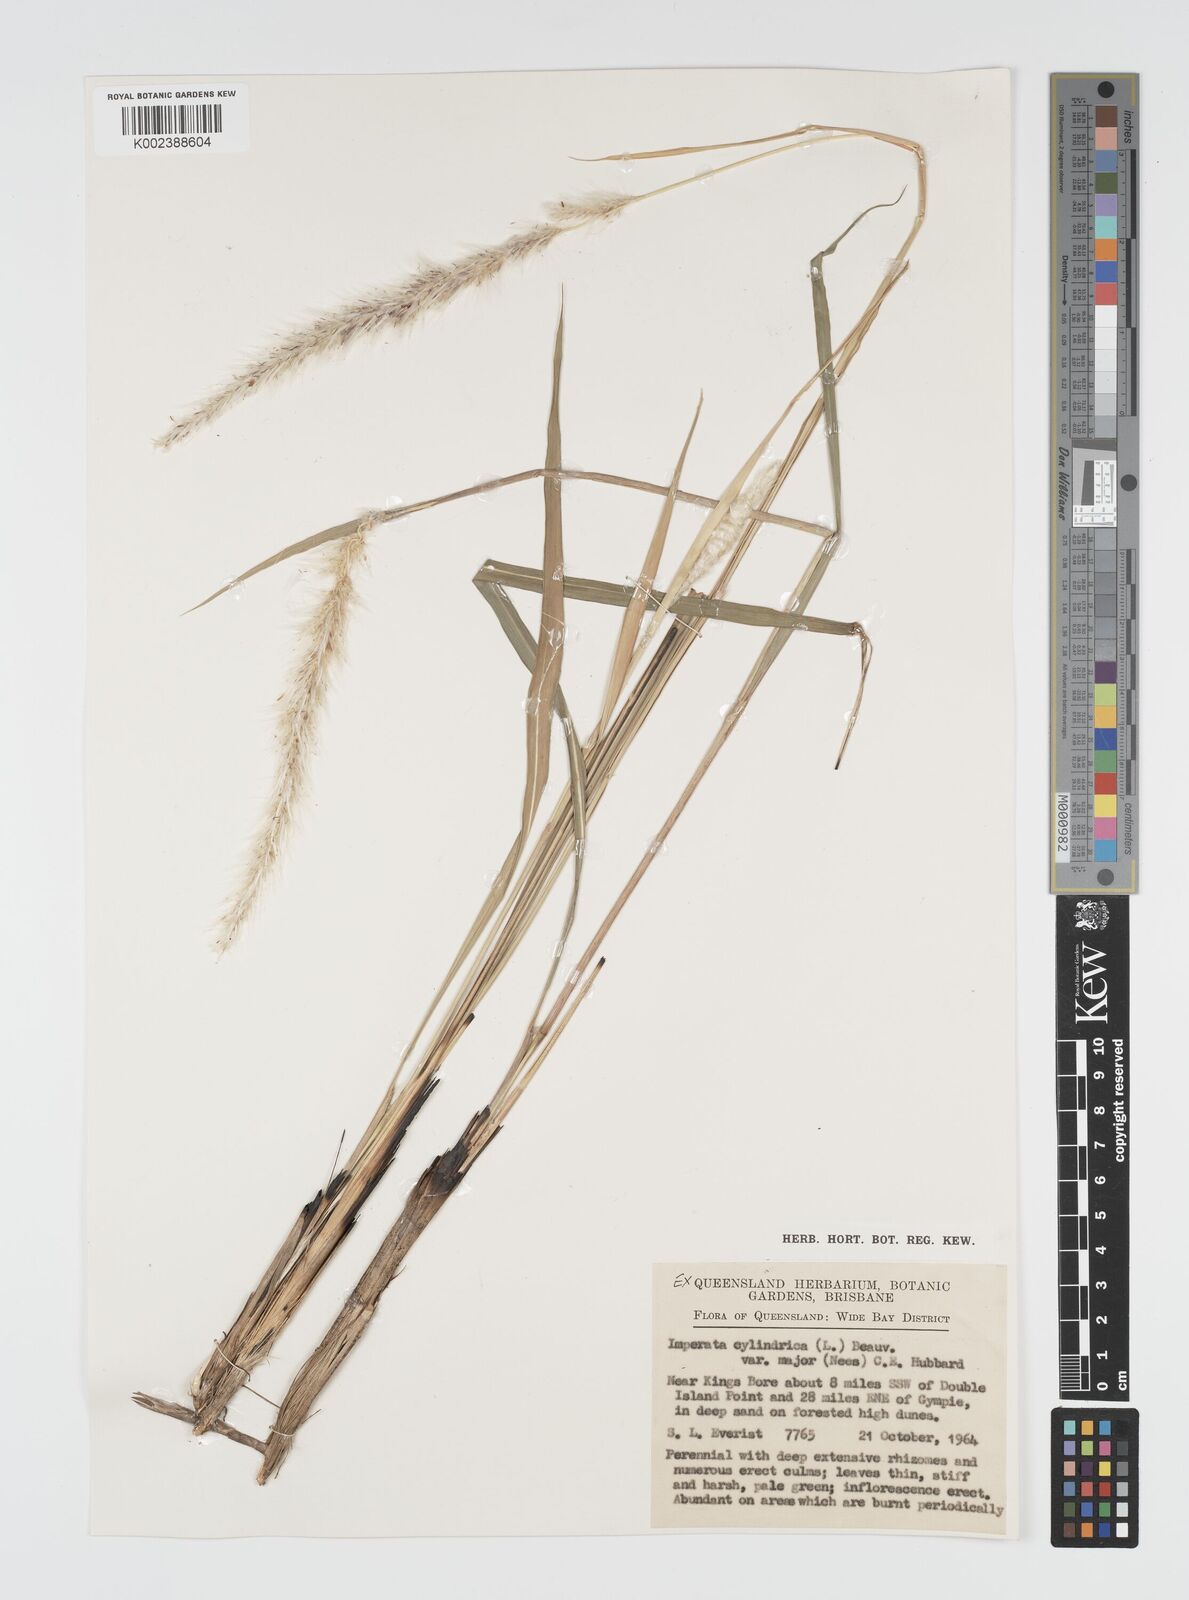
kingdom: Plantae
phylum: Tracheophyta
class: Liliopsida
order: Poales
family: Poaceae
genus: Imperata
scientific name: Imperata cylindrica
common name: Cogongrass
